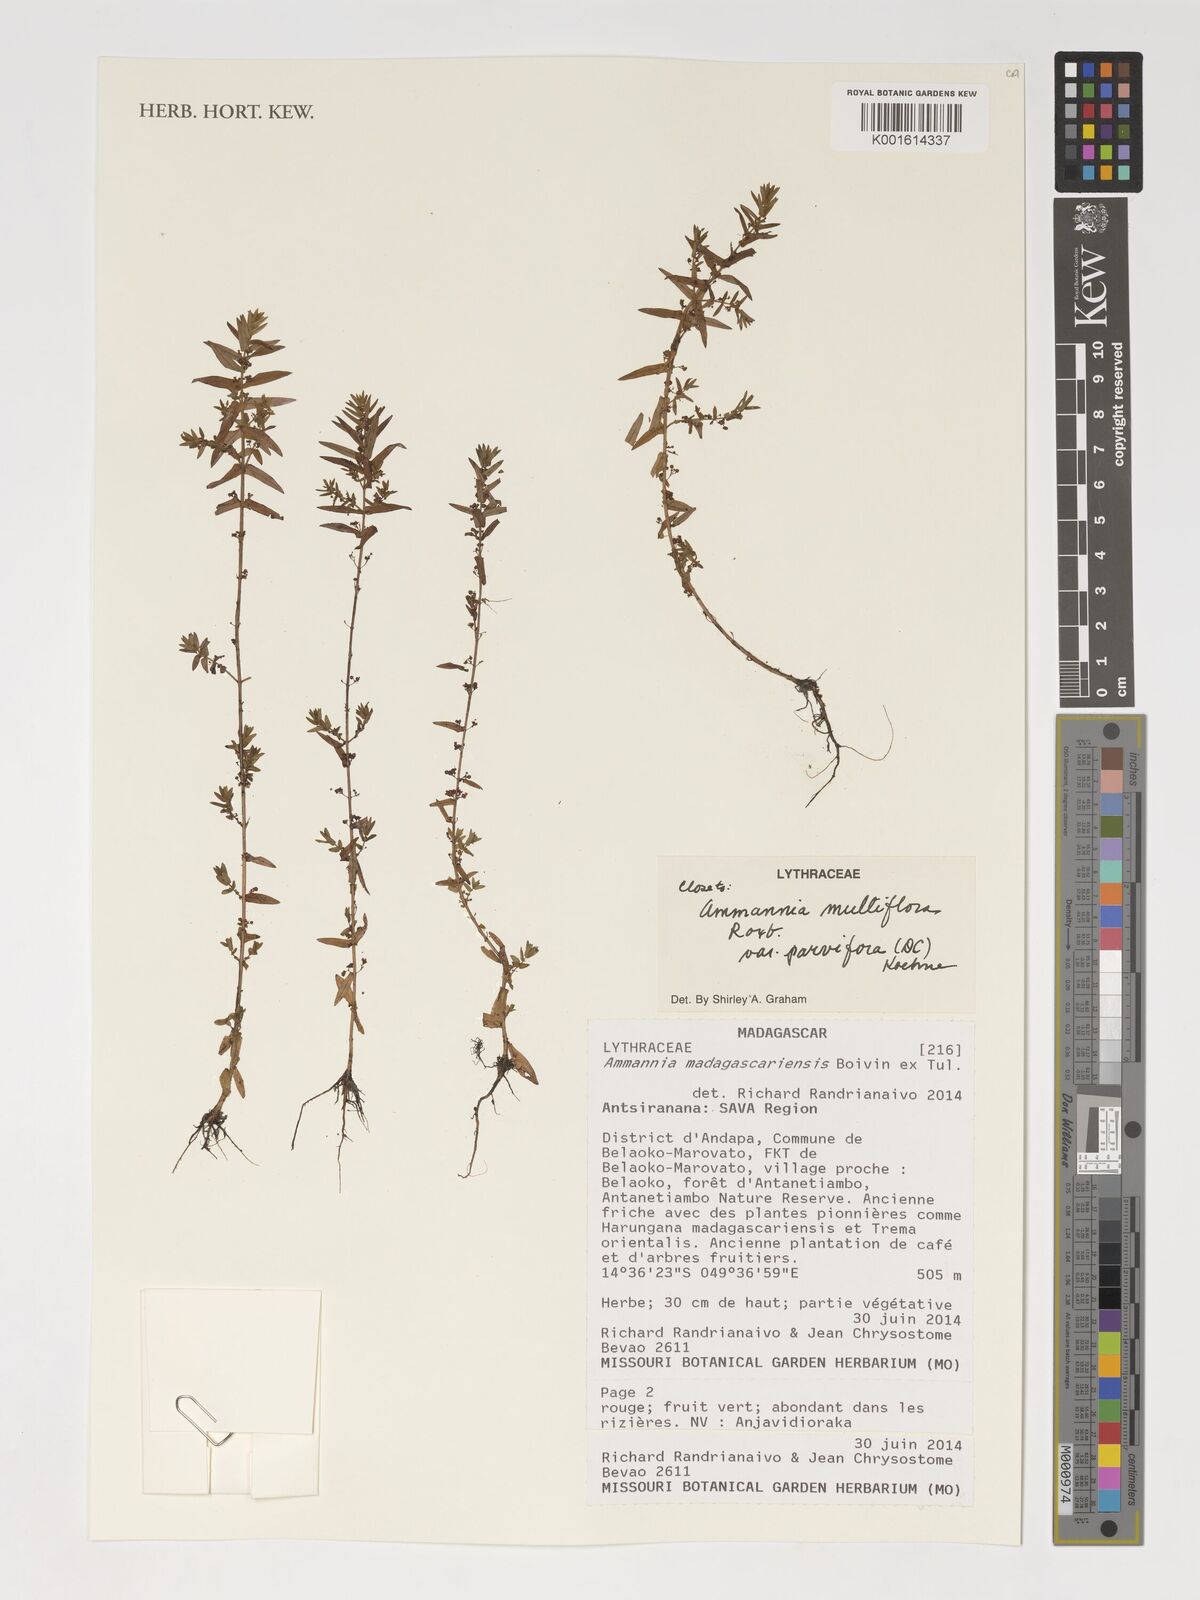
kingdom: Plantae
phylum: Tracheophyta
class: Magnoliopsida
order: Myrtales
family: Lythraceae
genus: Ammannia
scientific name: Ammannia madagascariensis
